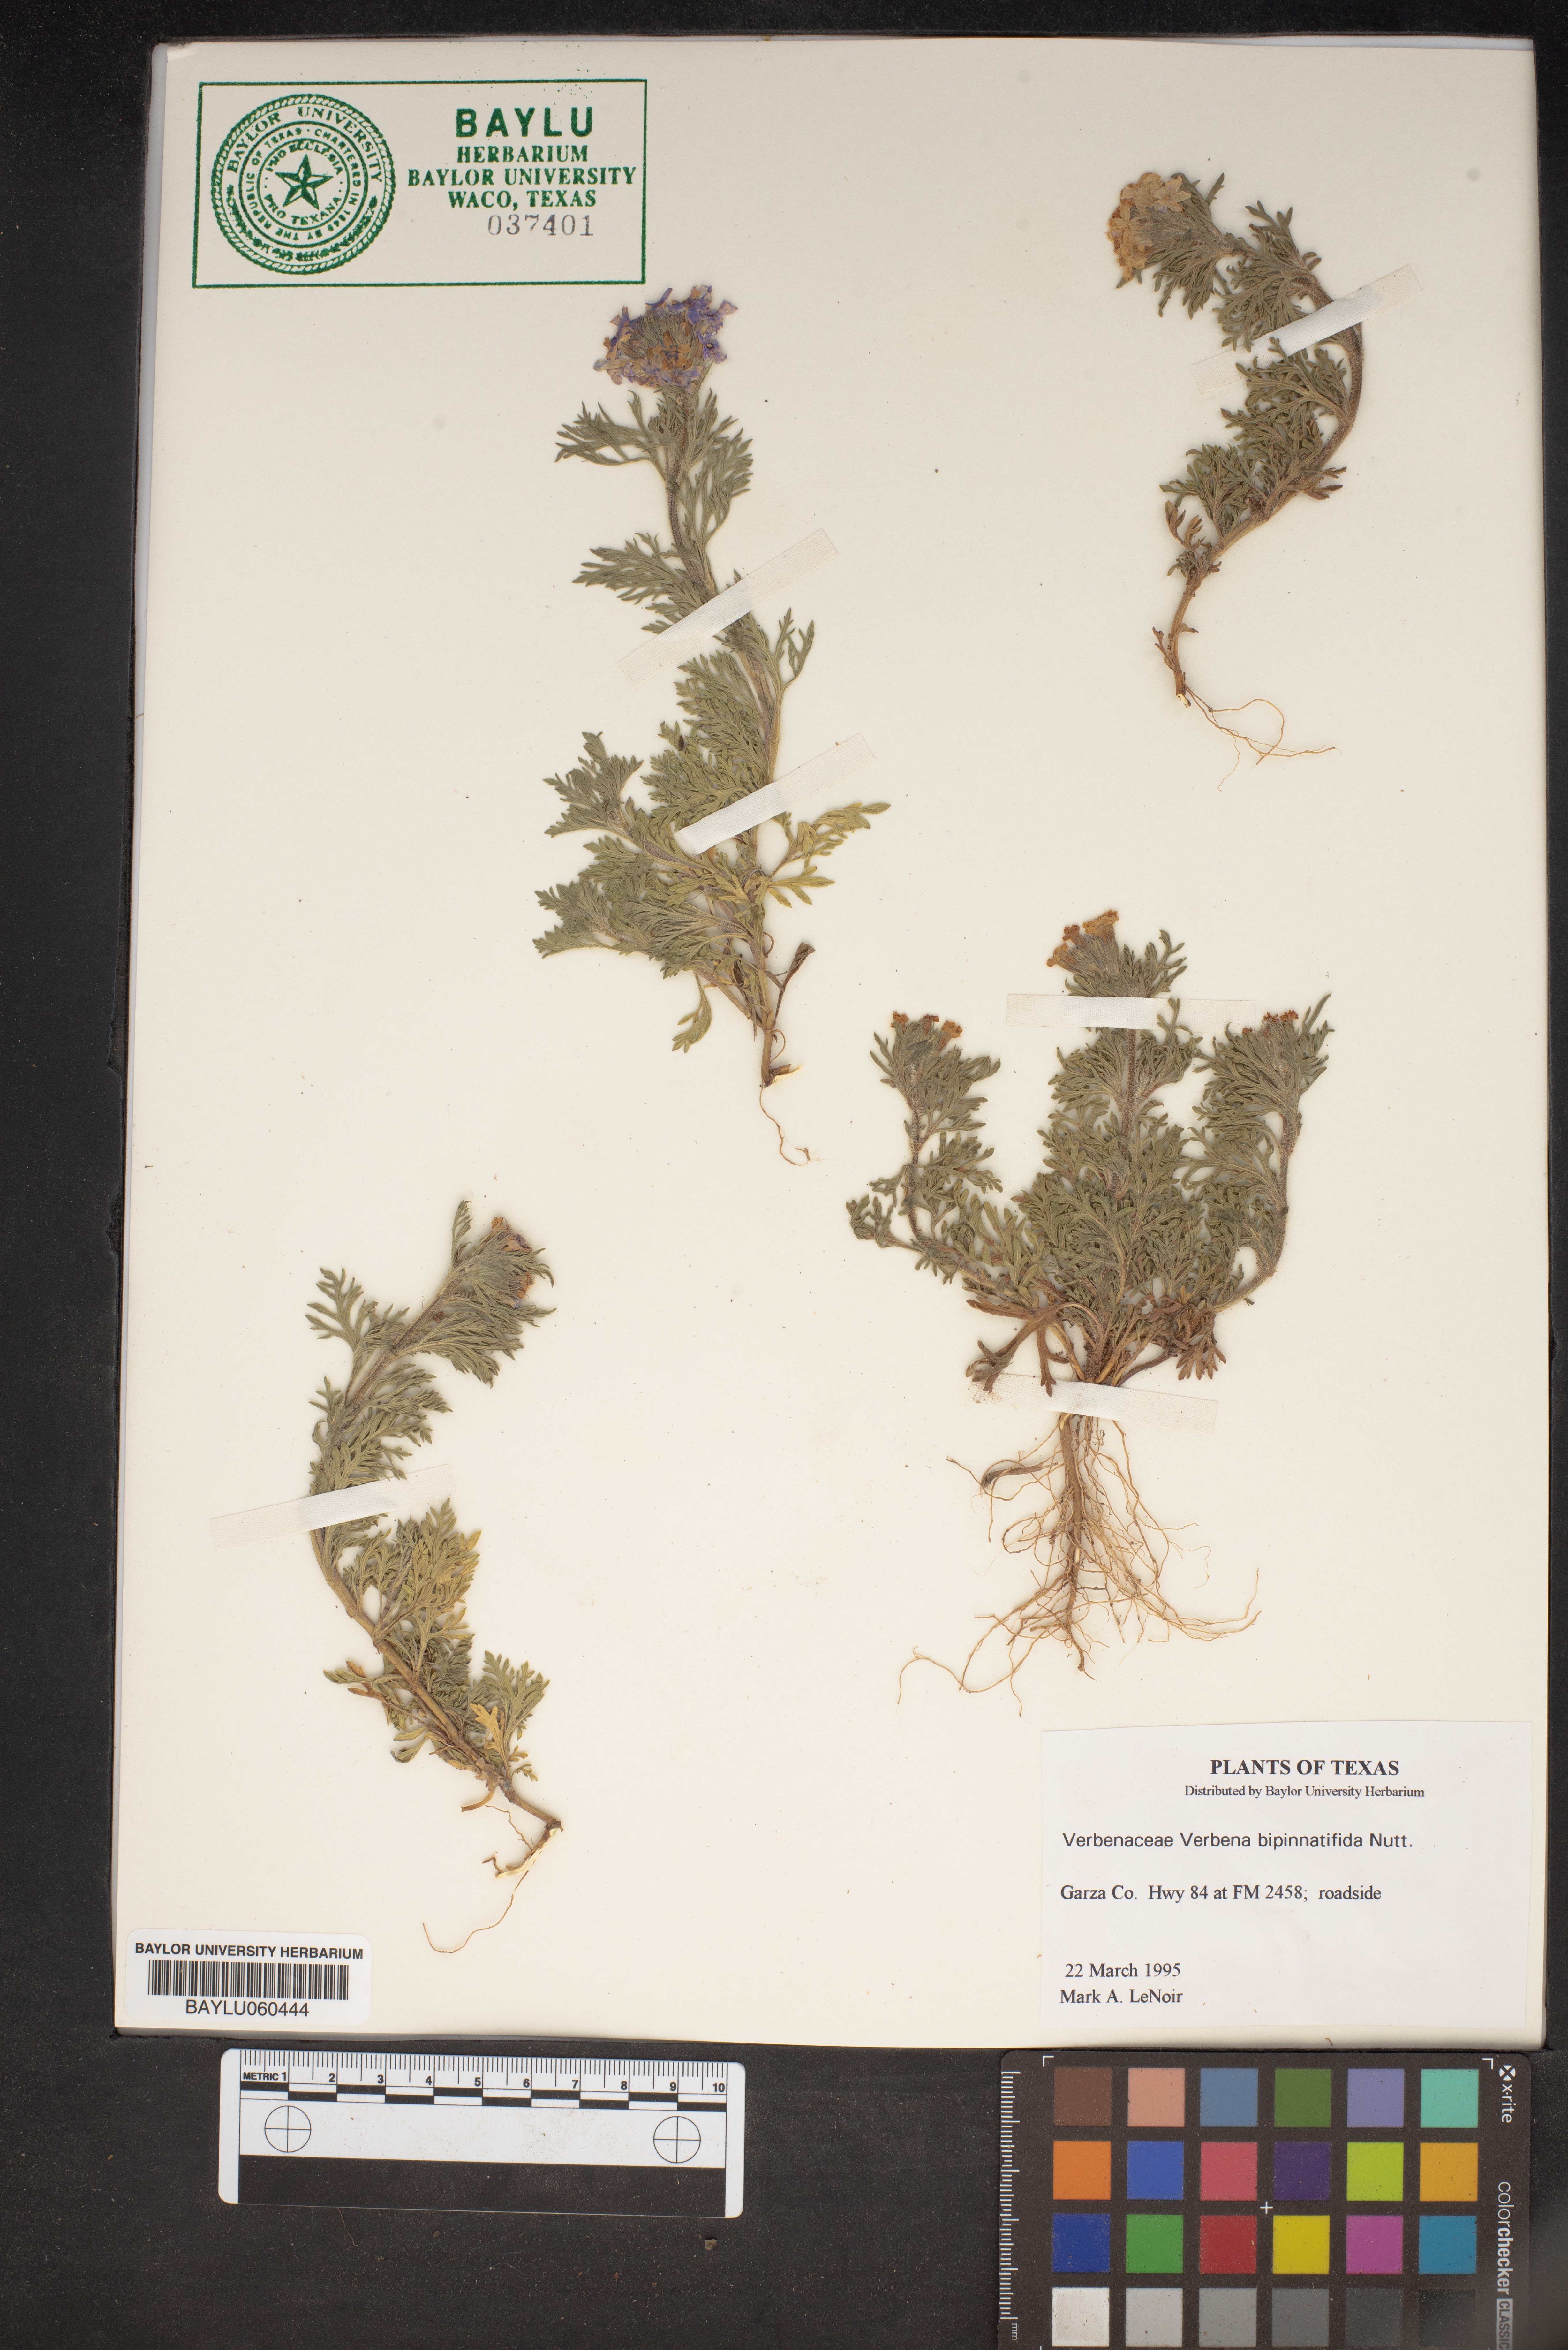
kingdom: Plantae
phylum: Tracheophyta
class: Magnoliopsida
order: Lamiales
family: Verbenaceae
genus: Verbena
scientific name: Verbena bipinnatifida
